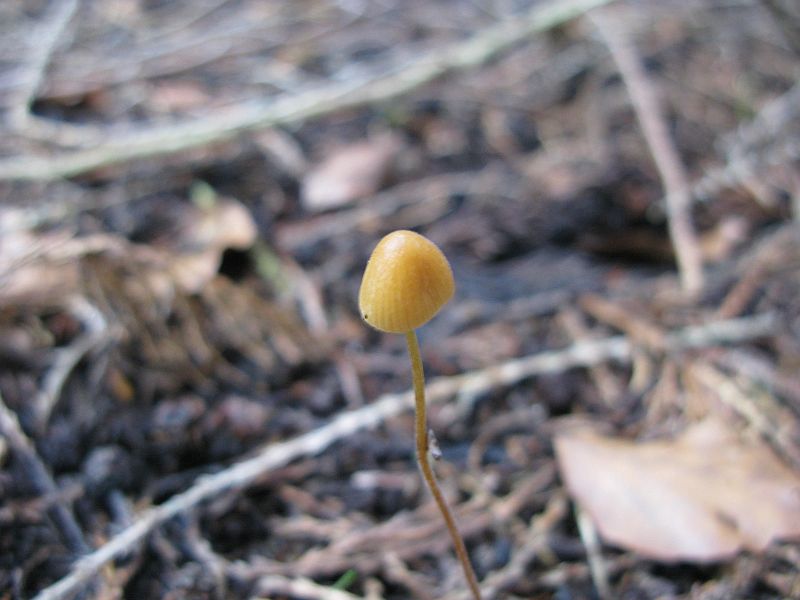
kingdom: Fungi
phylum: Basidiomycota
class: Agaricomycetes
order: Agaricales
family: Mycenaceae
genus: Mycena
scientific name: Mycena citrinomarginata
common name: gulægget huesvamp
